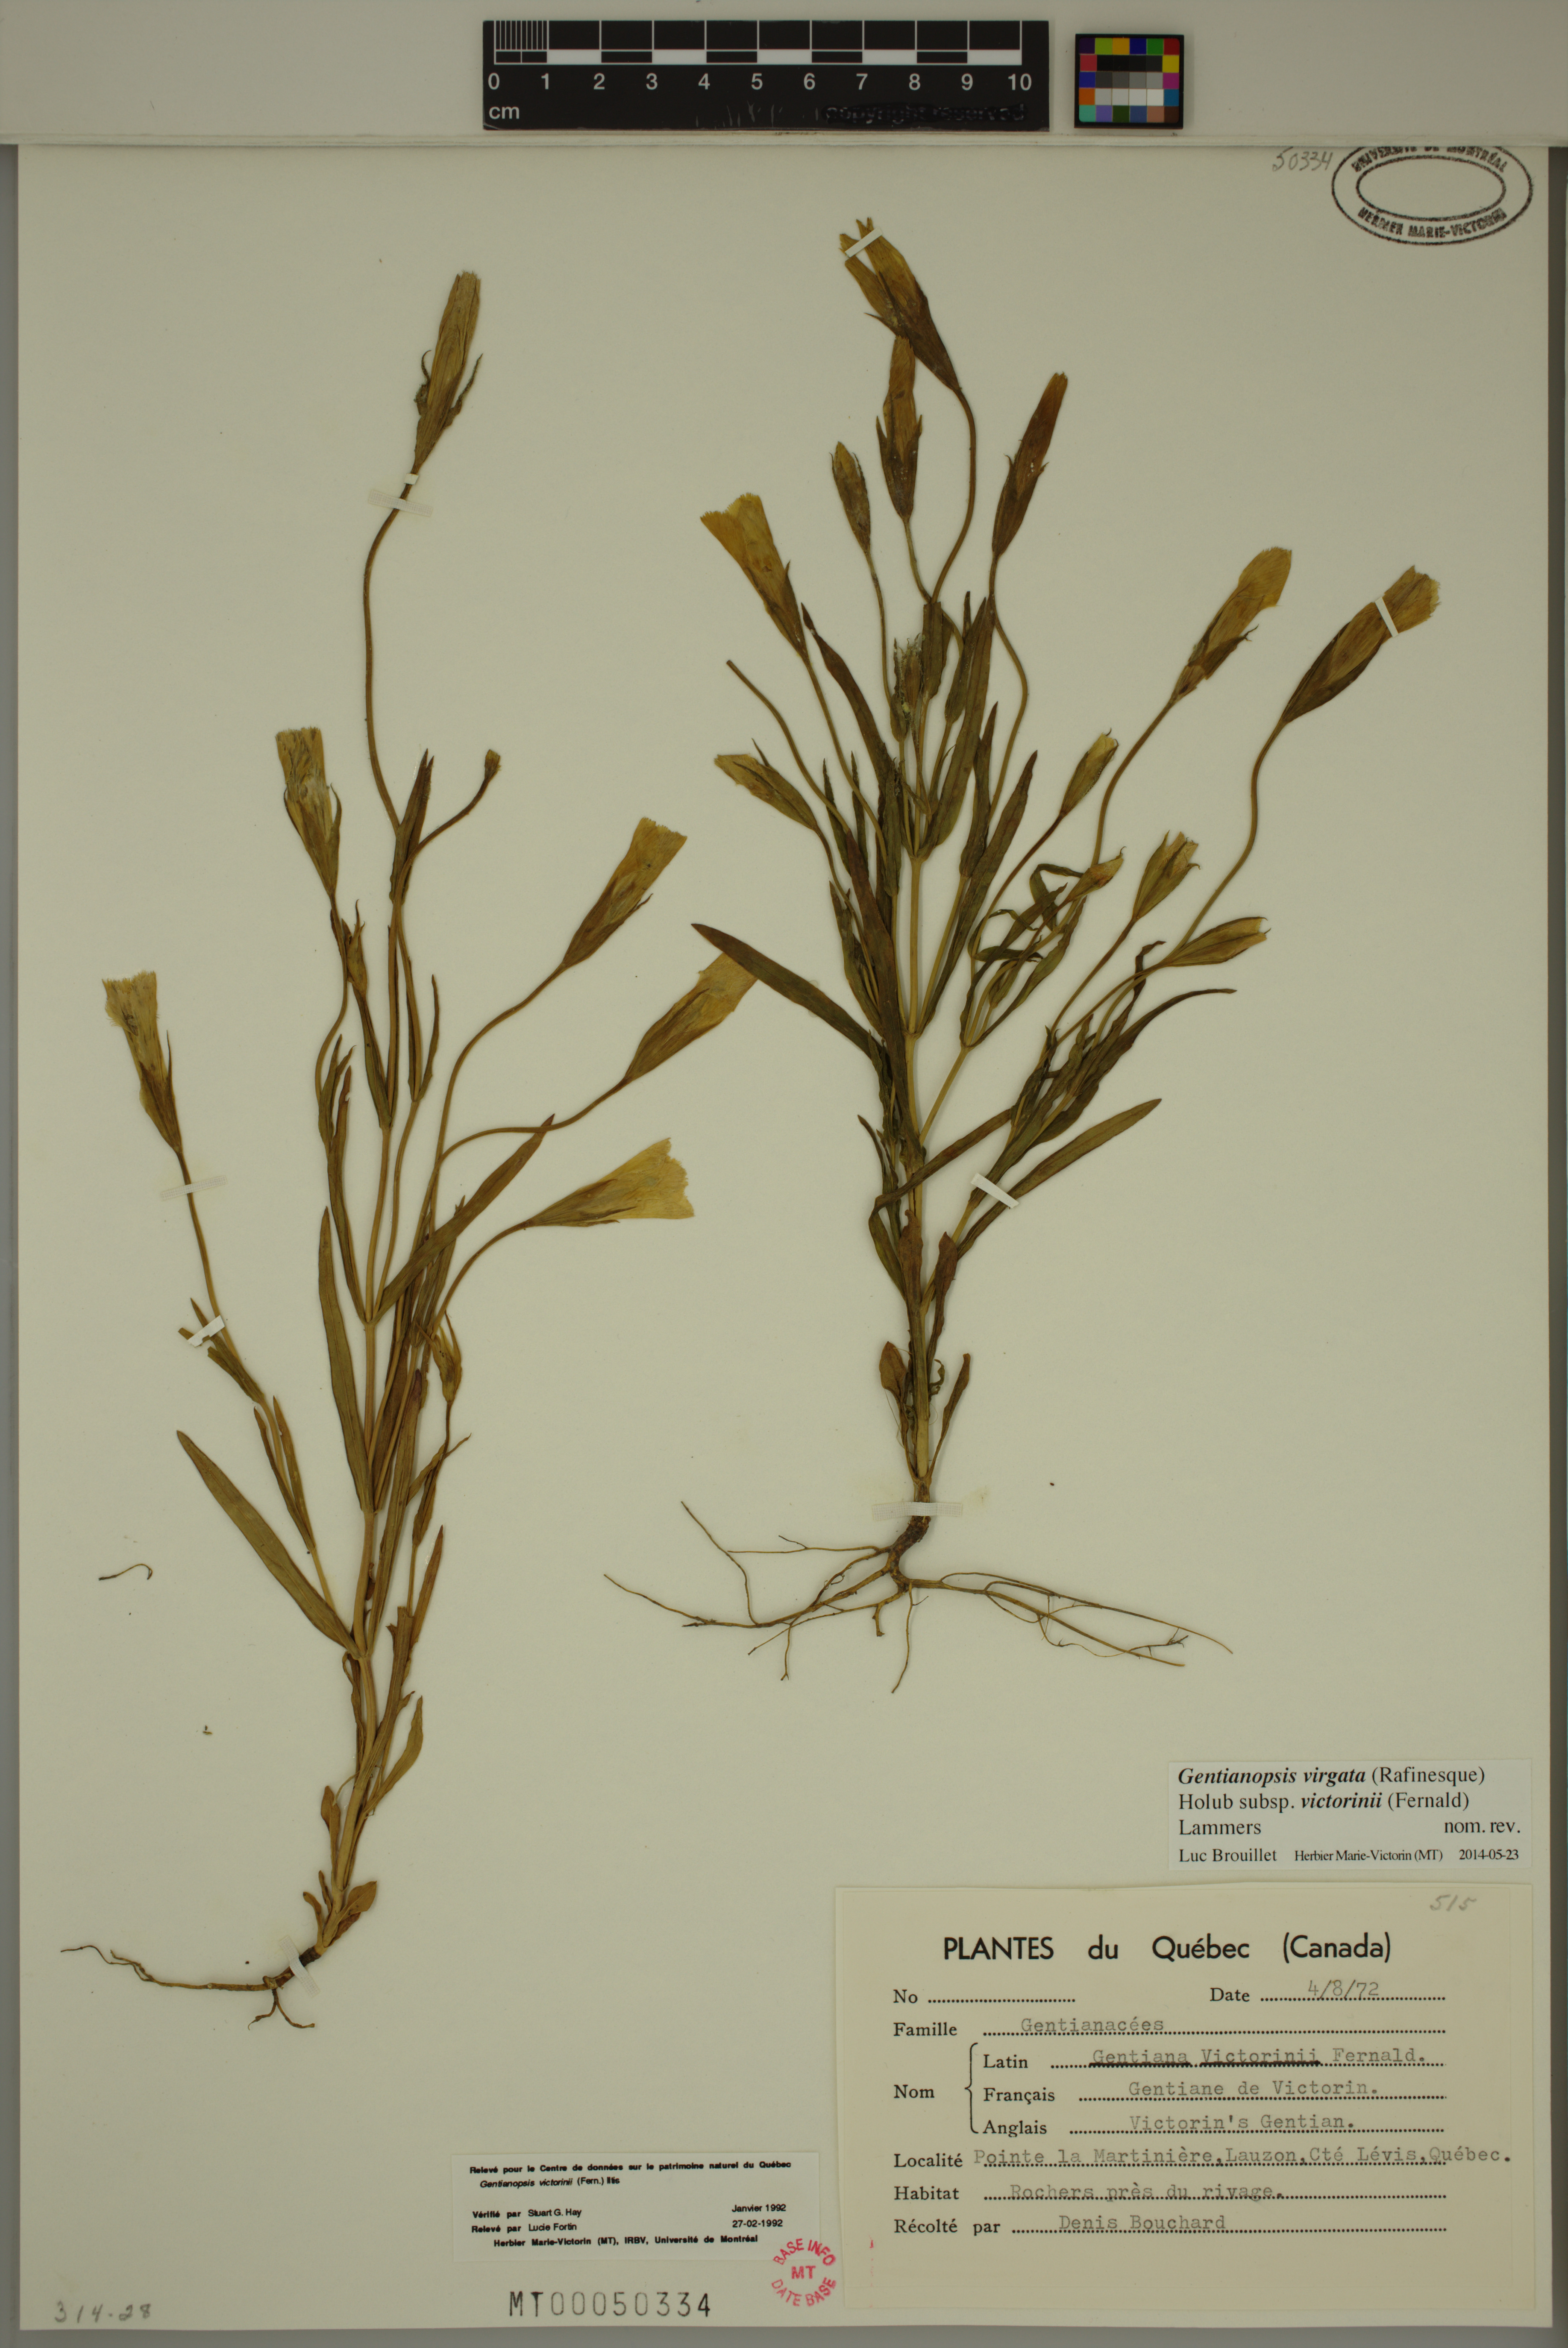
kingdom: Plantae
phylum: Tracheophyta
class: Magnoliopsida
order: Gentianales
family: Gentianaceae
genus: Gentianopsis
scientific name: Gentianopsis victorinii
